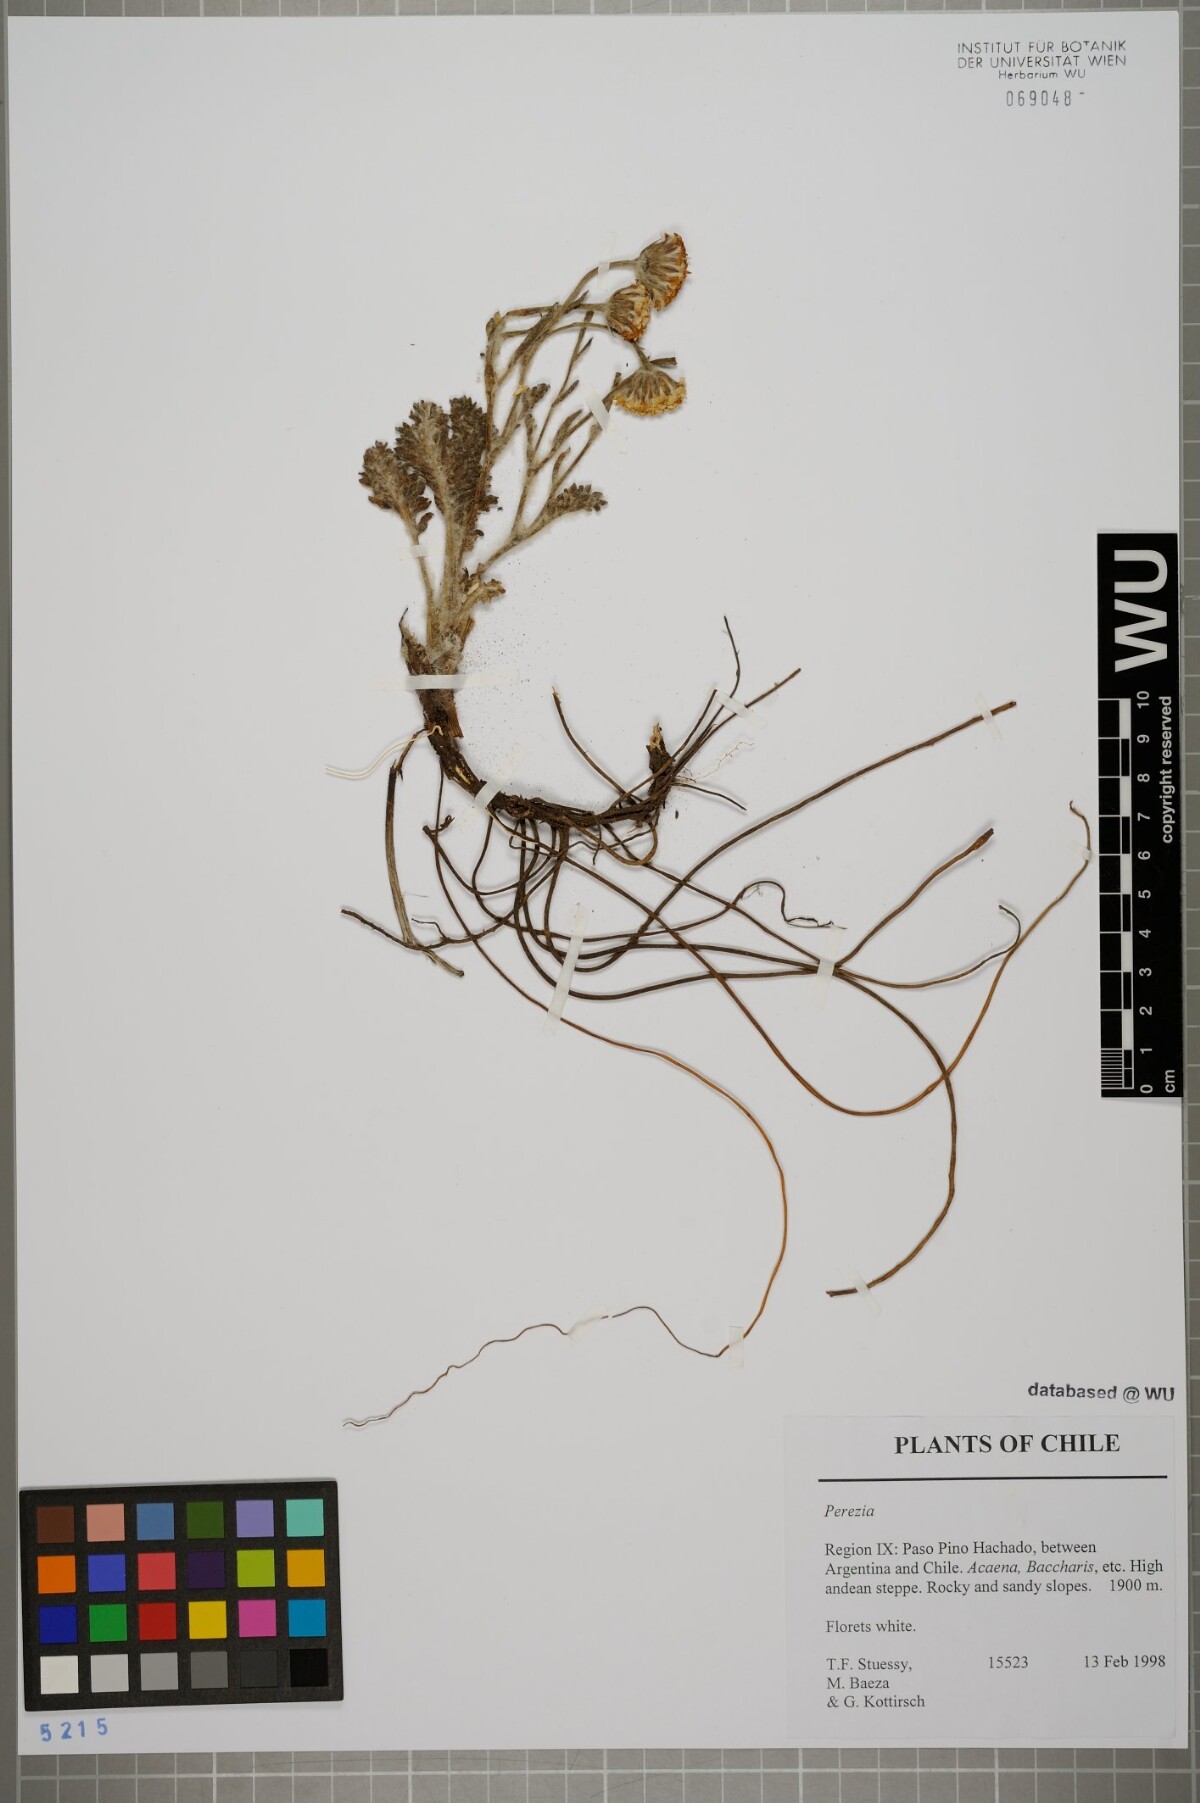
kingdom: Plantae
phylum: Tracheophyta
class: Magnoliopsida
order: Asterales
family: Asteraceae
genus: Perezia
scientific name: Perezia
